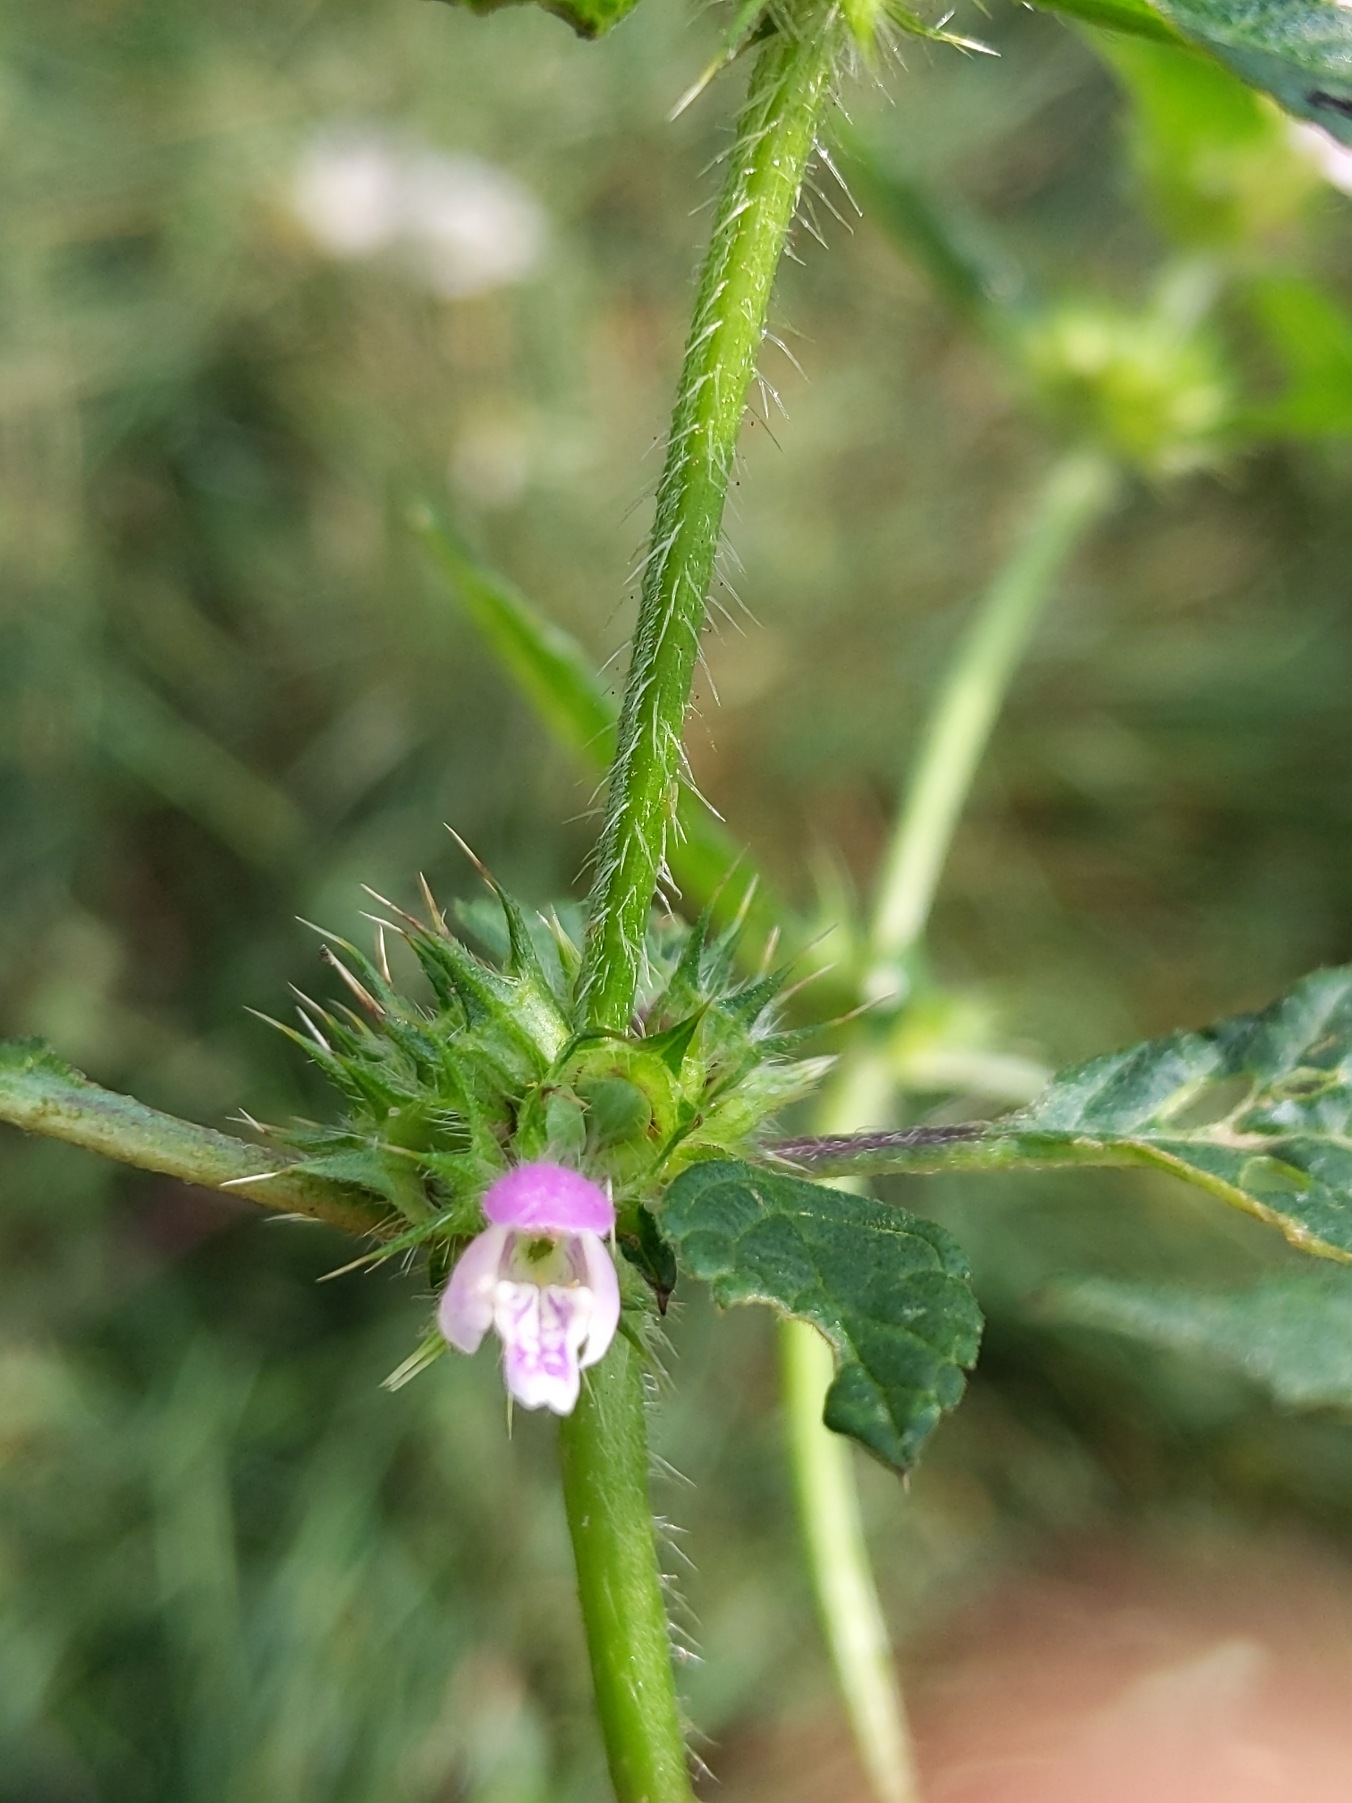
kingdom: Plantae
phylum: Tracheophyta
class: Magnoliopsida
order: Lamiales
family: Lamiaceae
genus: Galeopsis
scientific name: Galeopsis bifida
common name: Skov-hanekro
